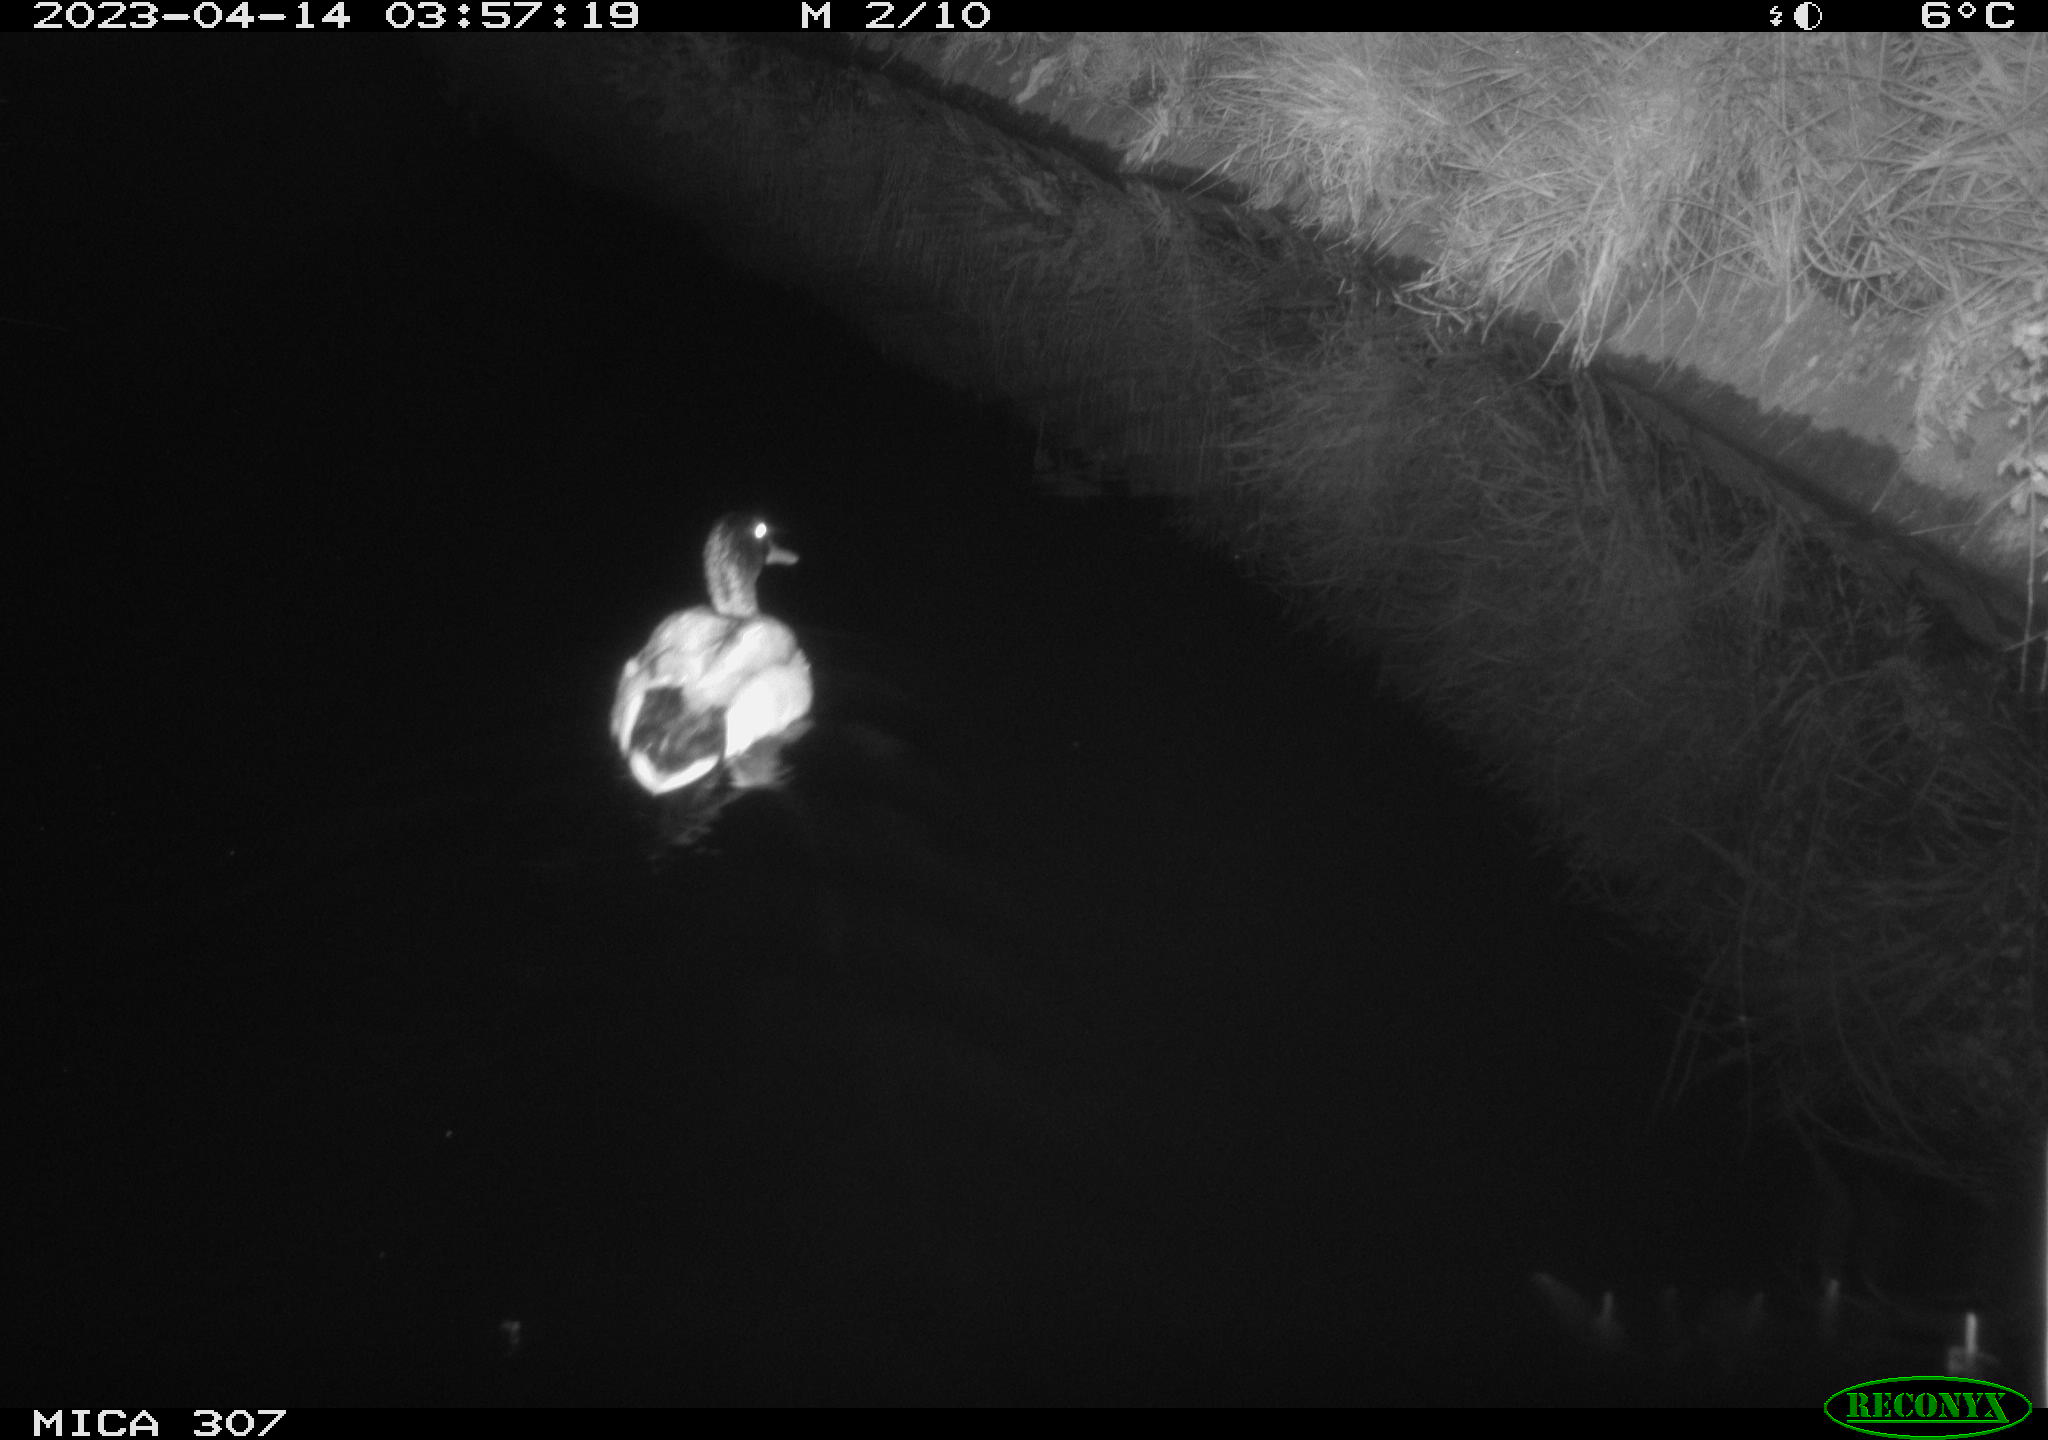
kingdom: Animalia
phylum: Chordata
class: Aves
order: Anseriformes
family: Anatidae
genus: Anas
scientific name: Anas
